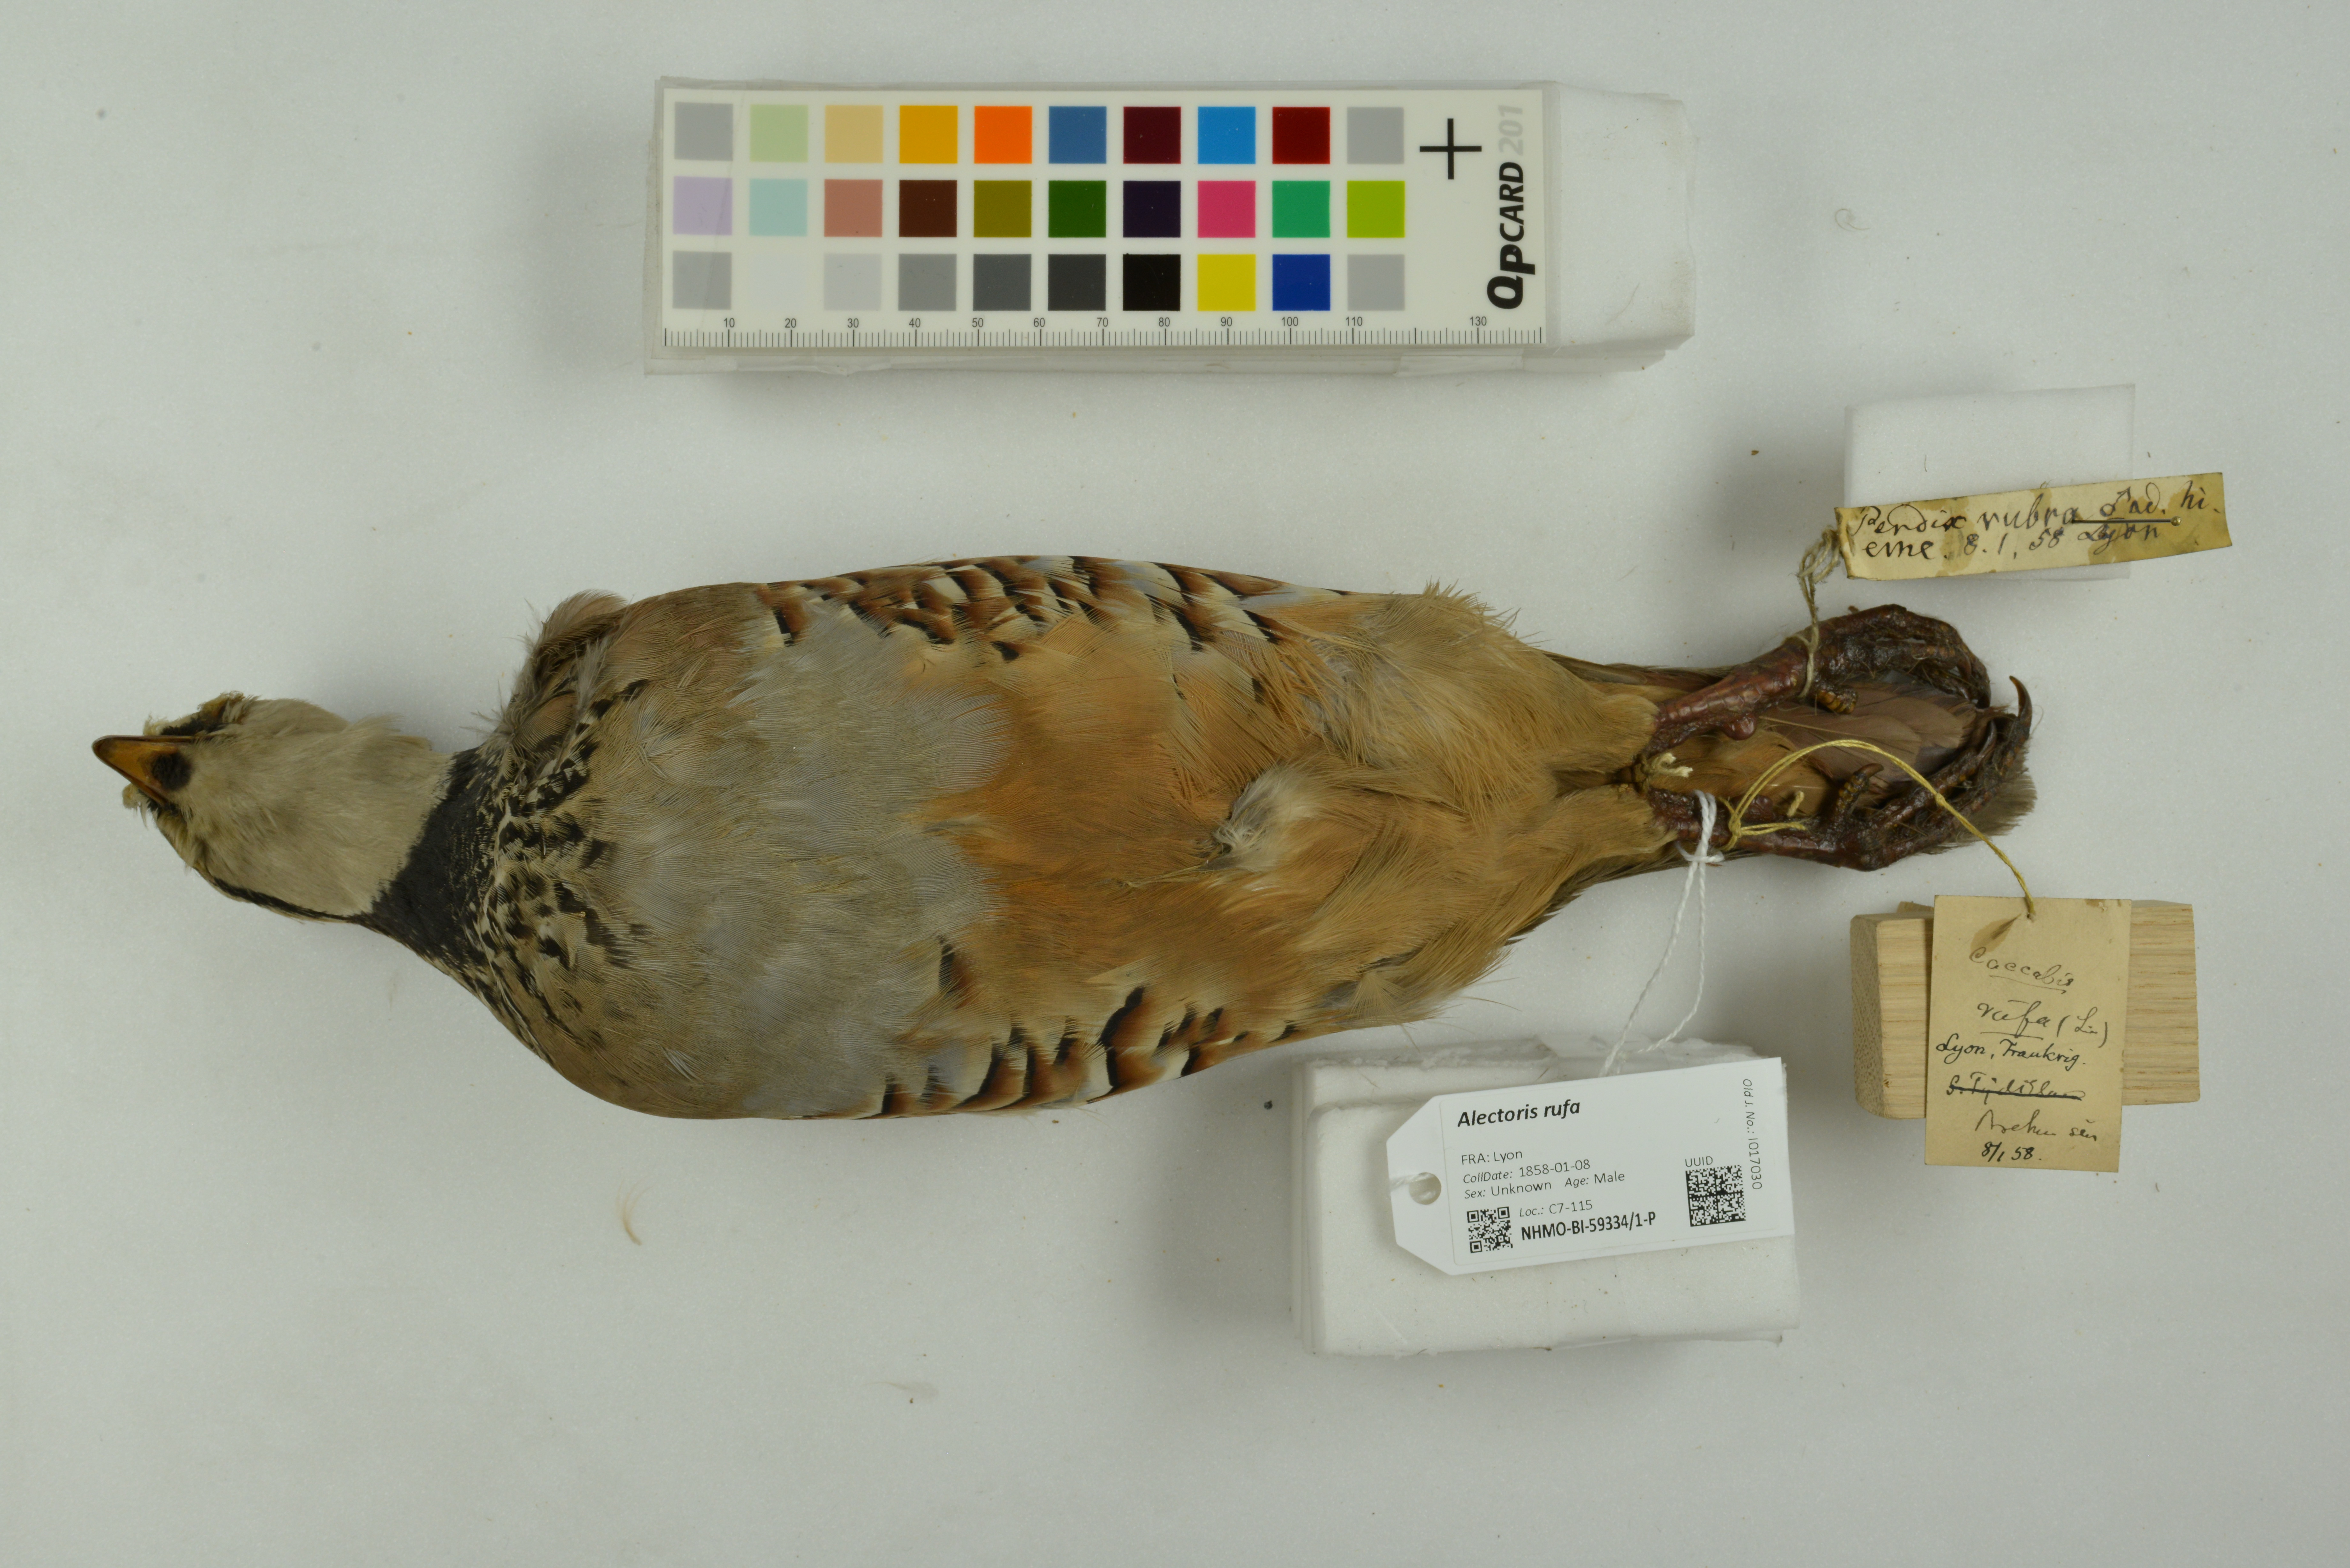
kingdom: Animalia
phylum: Chordata
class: Aves
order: Galliformes
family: Phasianidae
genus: Alectoris
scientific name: Alectoris rufa
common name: Red-legged partridge
